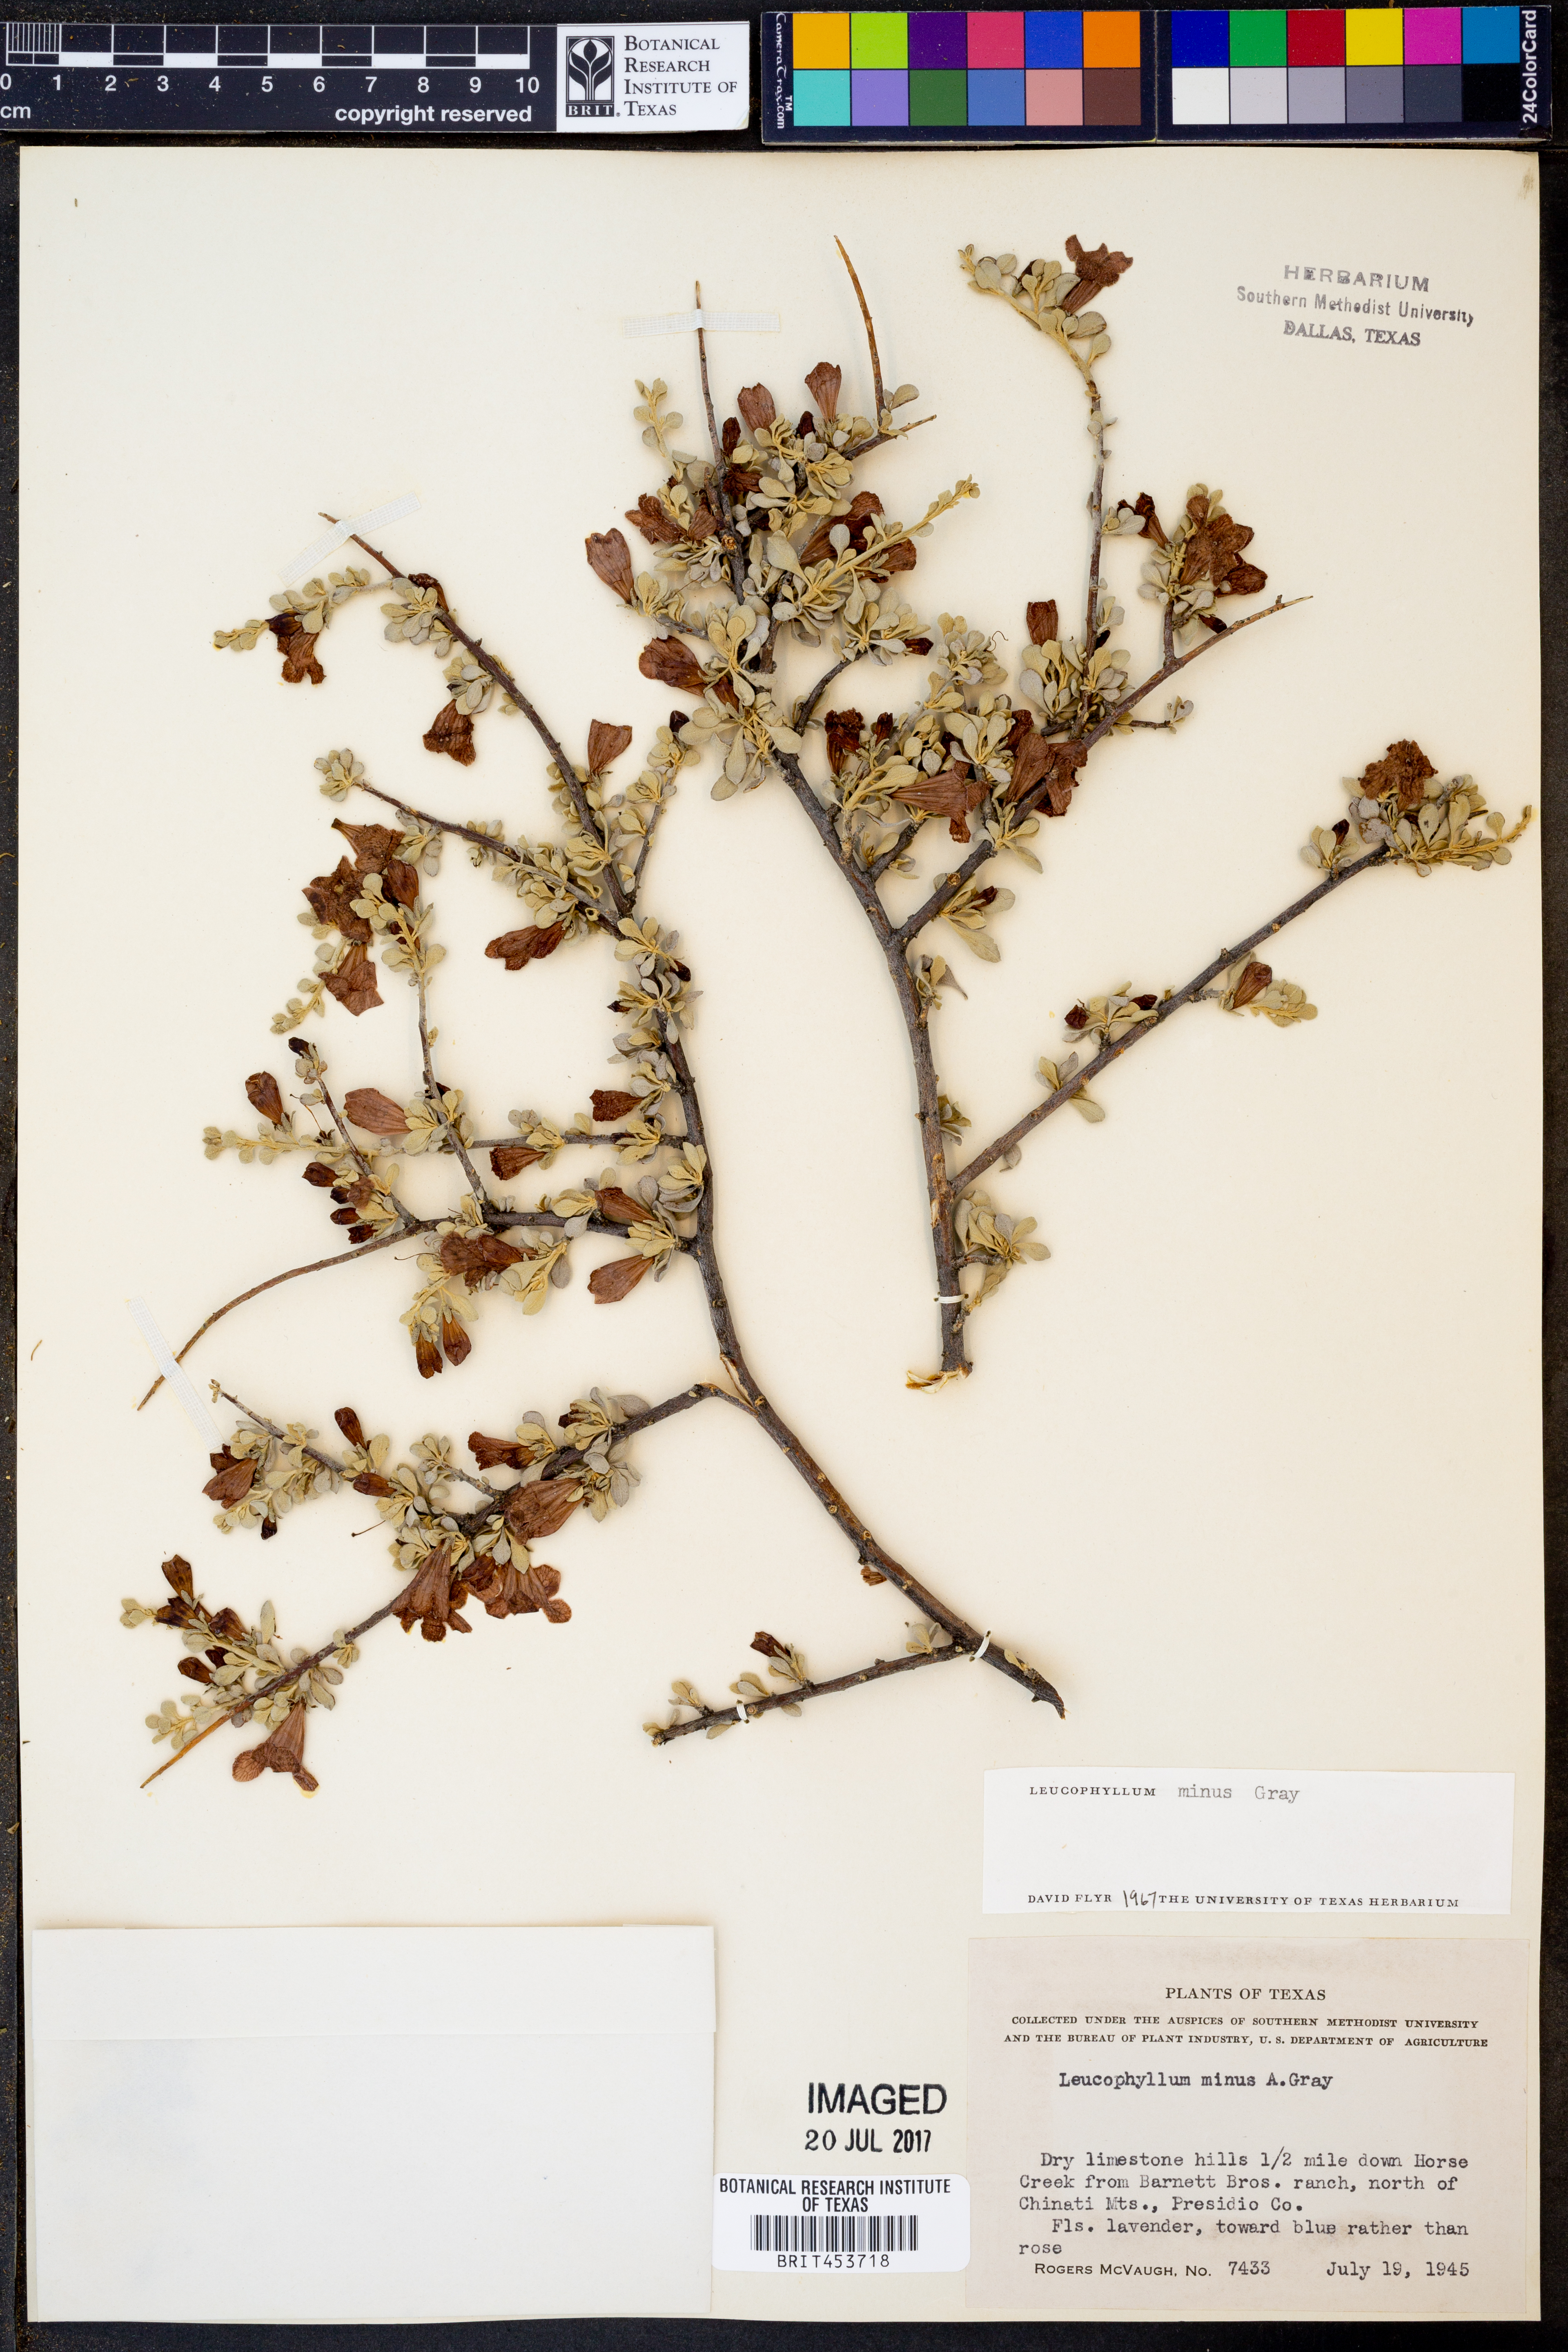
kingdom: Plantae
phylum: Tracheophyta
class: Magnoliopsida
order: Lamiales
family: Scrophulariaceae
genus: Leucophyllum
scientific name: Leucophyllum minus
